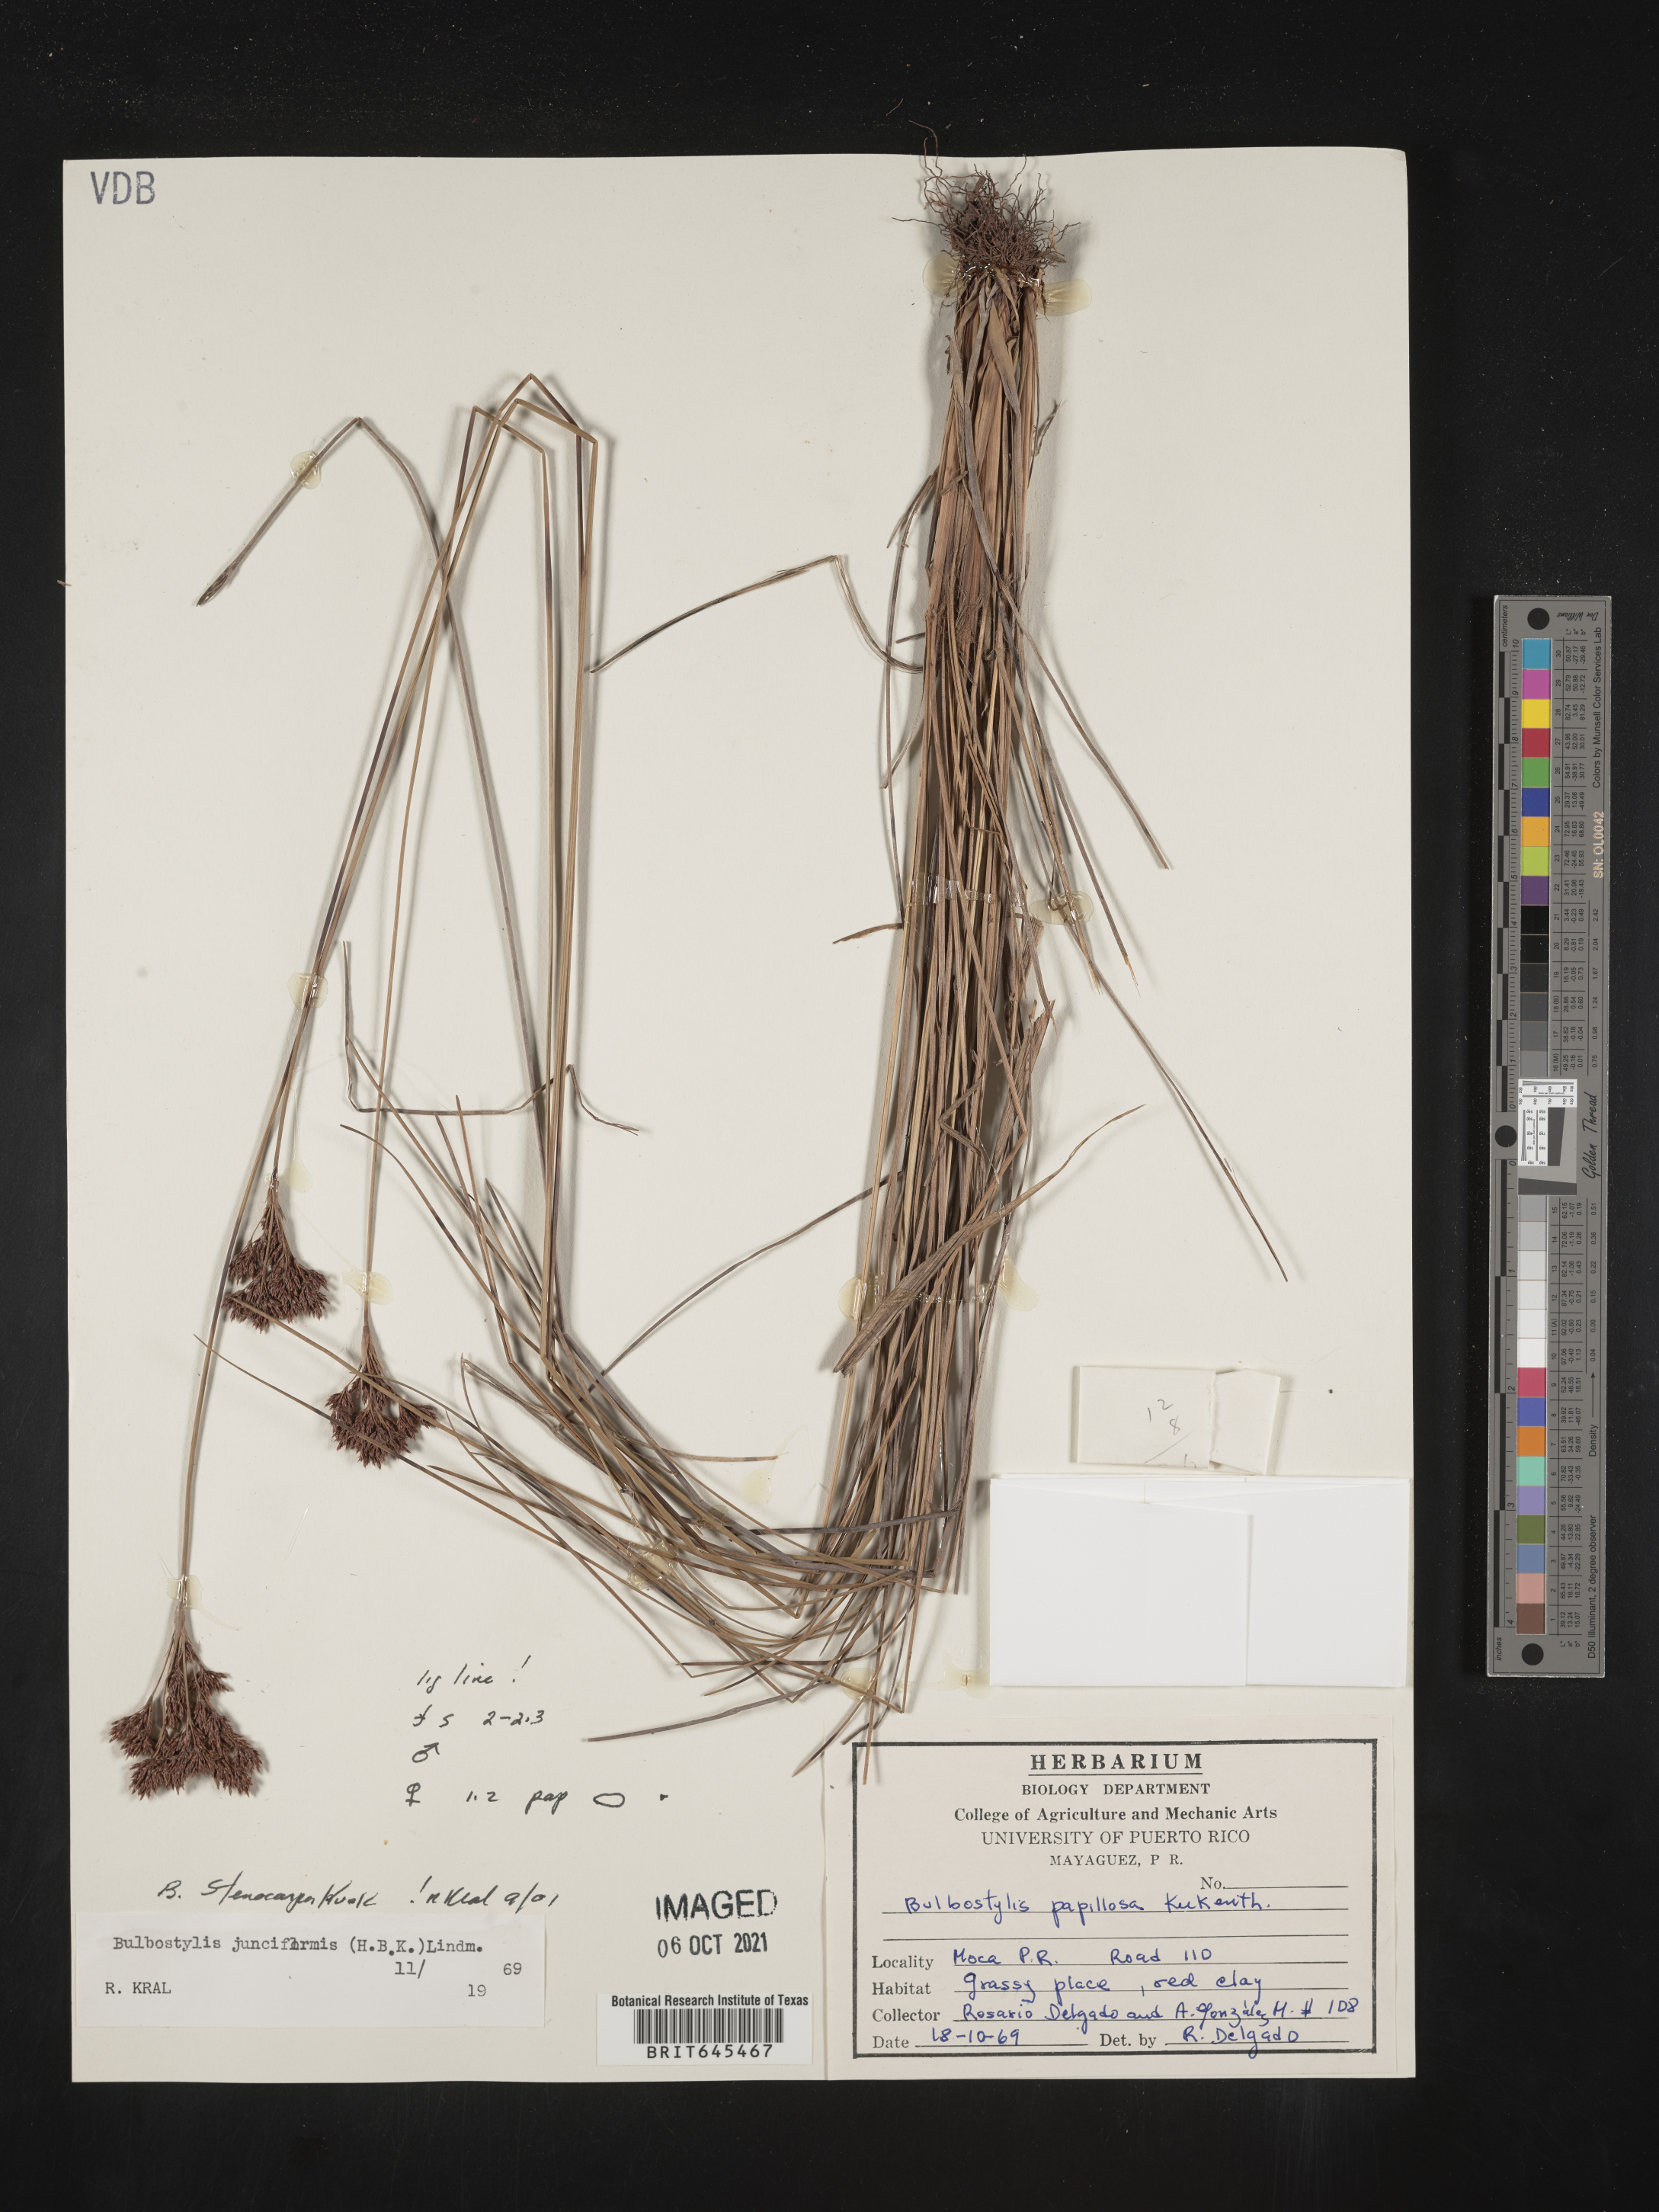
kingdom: Plantae
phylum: Tracheophyta
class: Liliopsida
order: Poales
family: Cyperaceae
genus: Bulbostylis
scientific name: Bulbostylis stenocarpa
